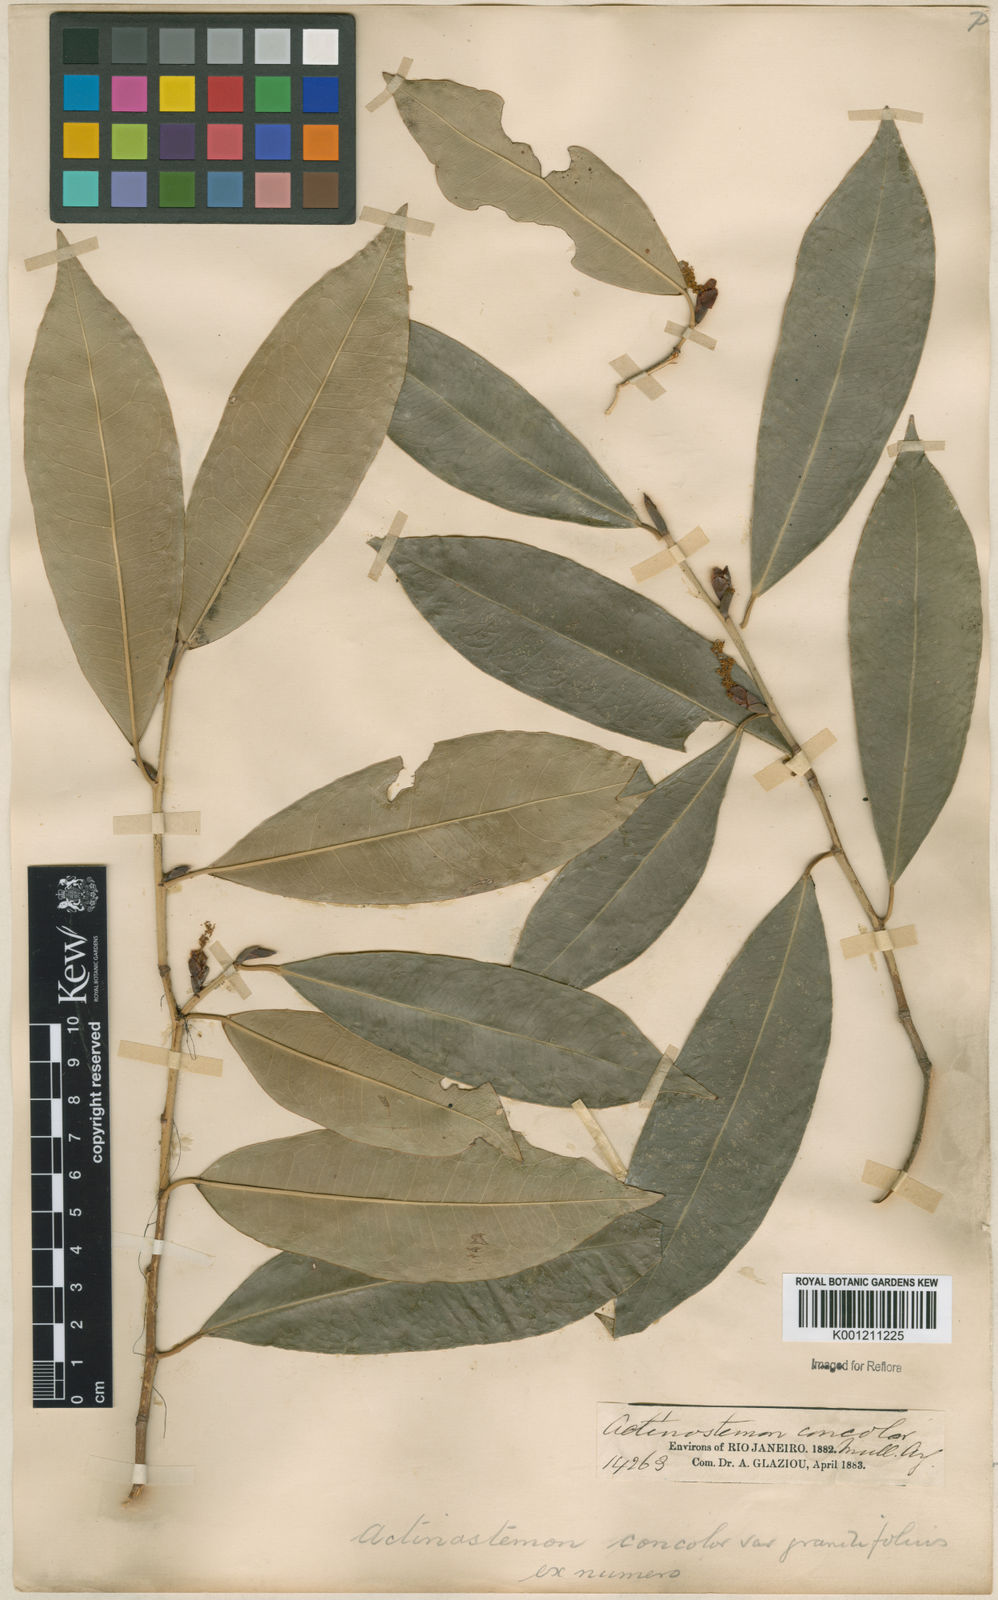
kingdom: Plantae
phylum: Tracheophyta
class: Magnoliopsida
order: Malpighiales
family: Euphorbiaceae
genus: Actinostemon
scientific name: Actinostemon
